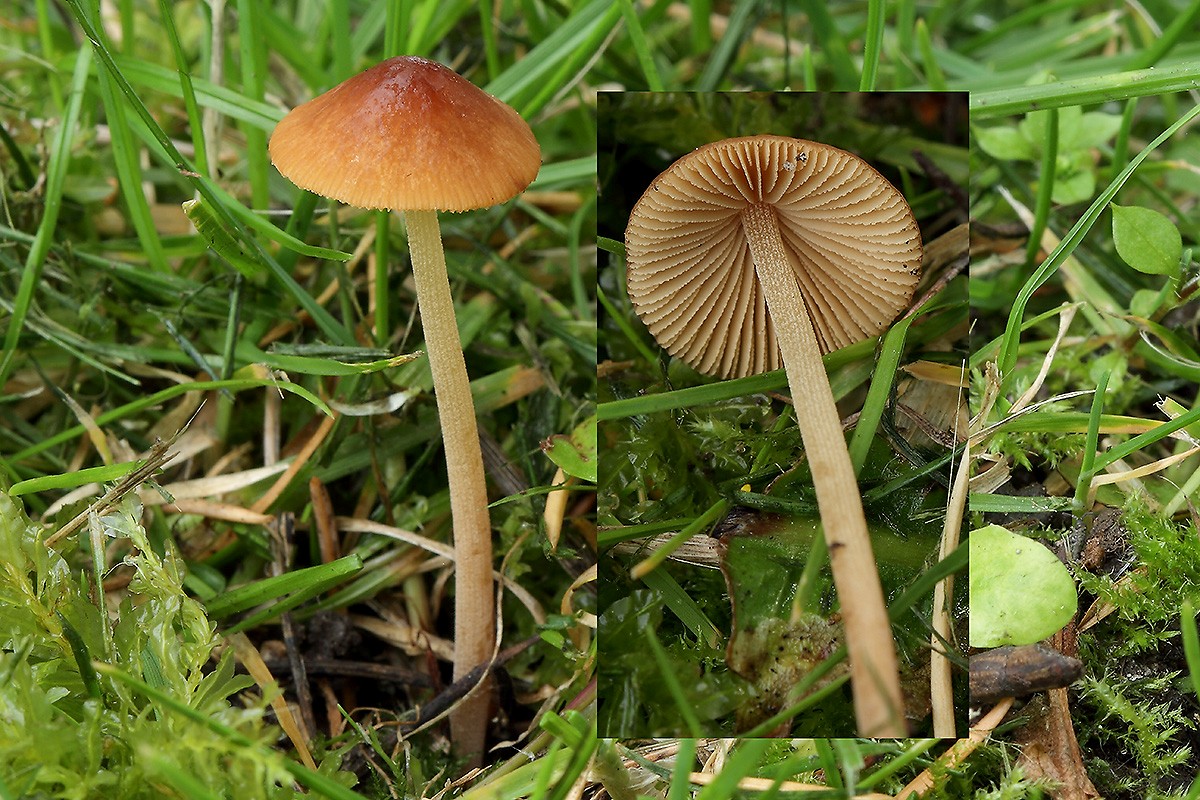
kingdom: Fungi
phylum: Basidiomycota
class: Agaricomycetes
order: Agaricales
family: Bolbitiaceae
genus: Conocybe
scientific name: Conocybe rickeniana
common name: kastaniebrun keglehat
